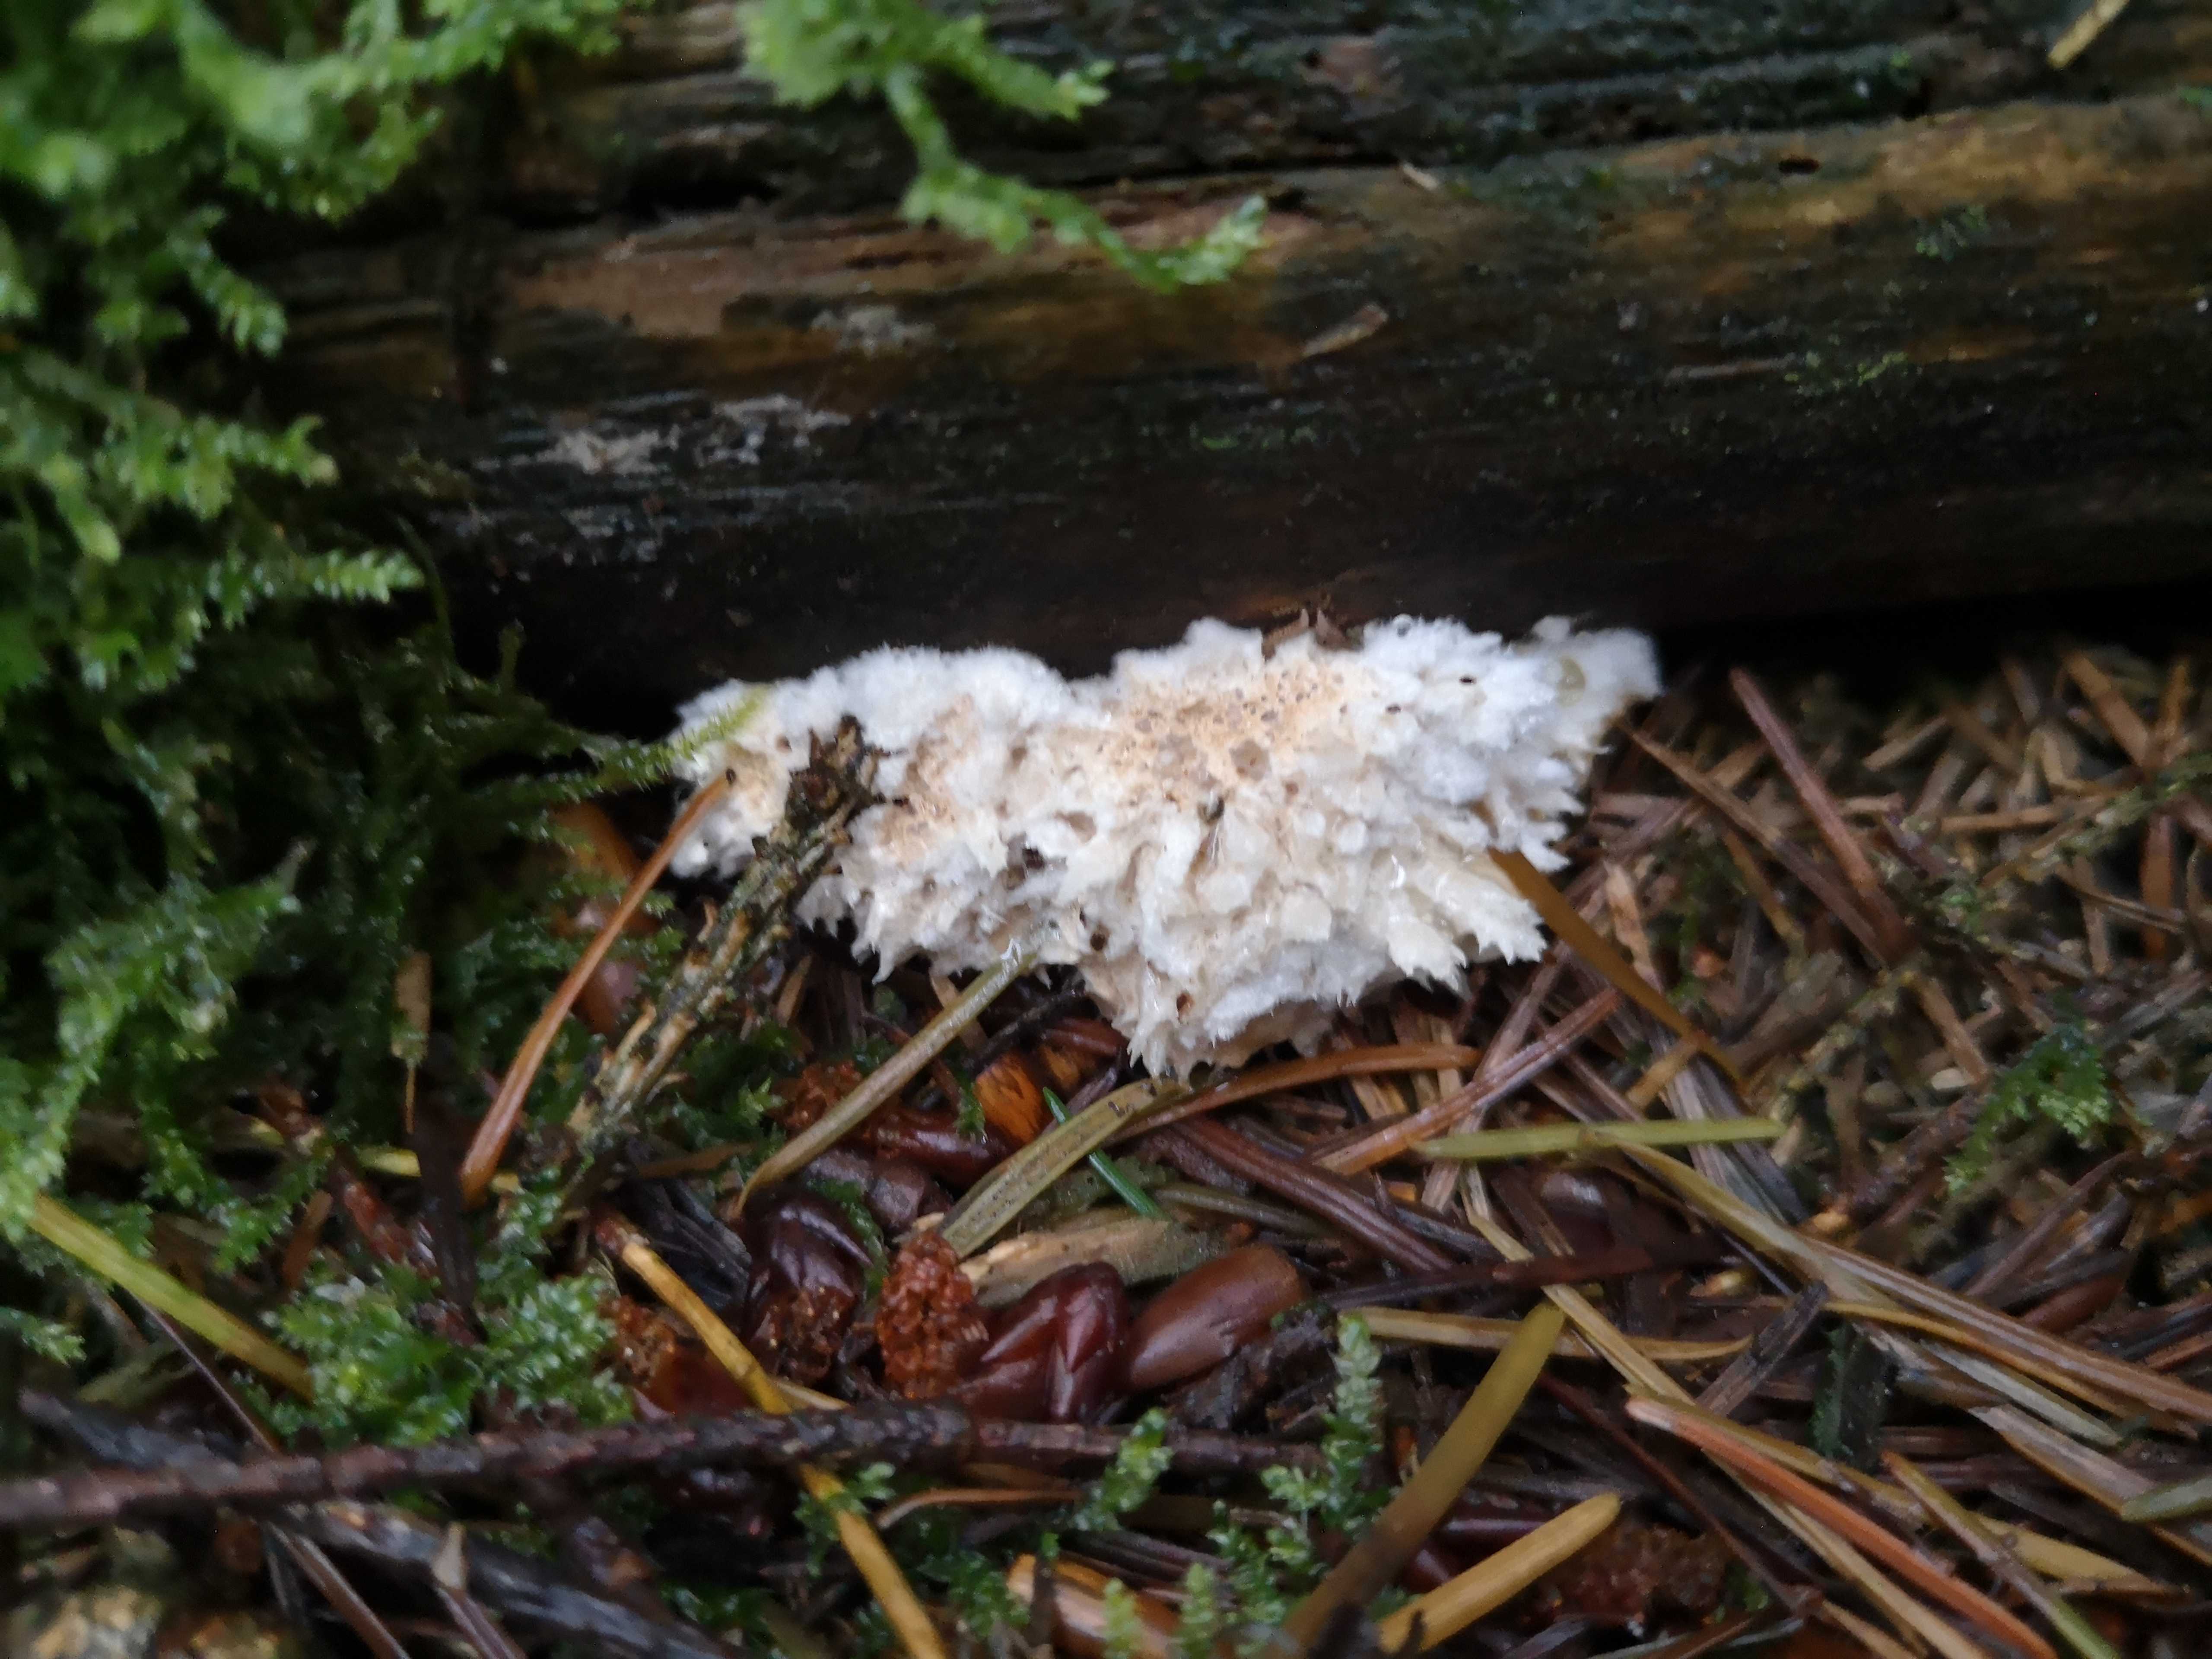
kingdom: Fungi
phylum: Basidiomycota
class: Agaricomycetes
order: Polyporales
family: Dacryobolaceae
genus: Postia
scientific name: Postia ptychogaster
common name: støvende kødporesvamp
